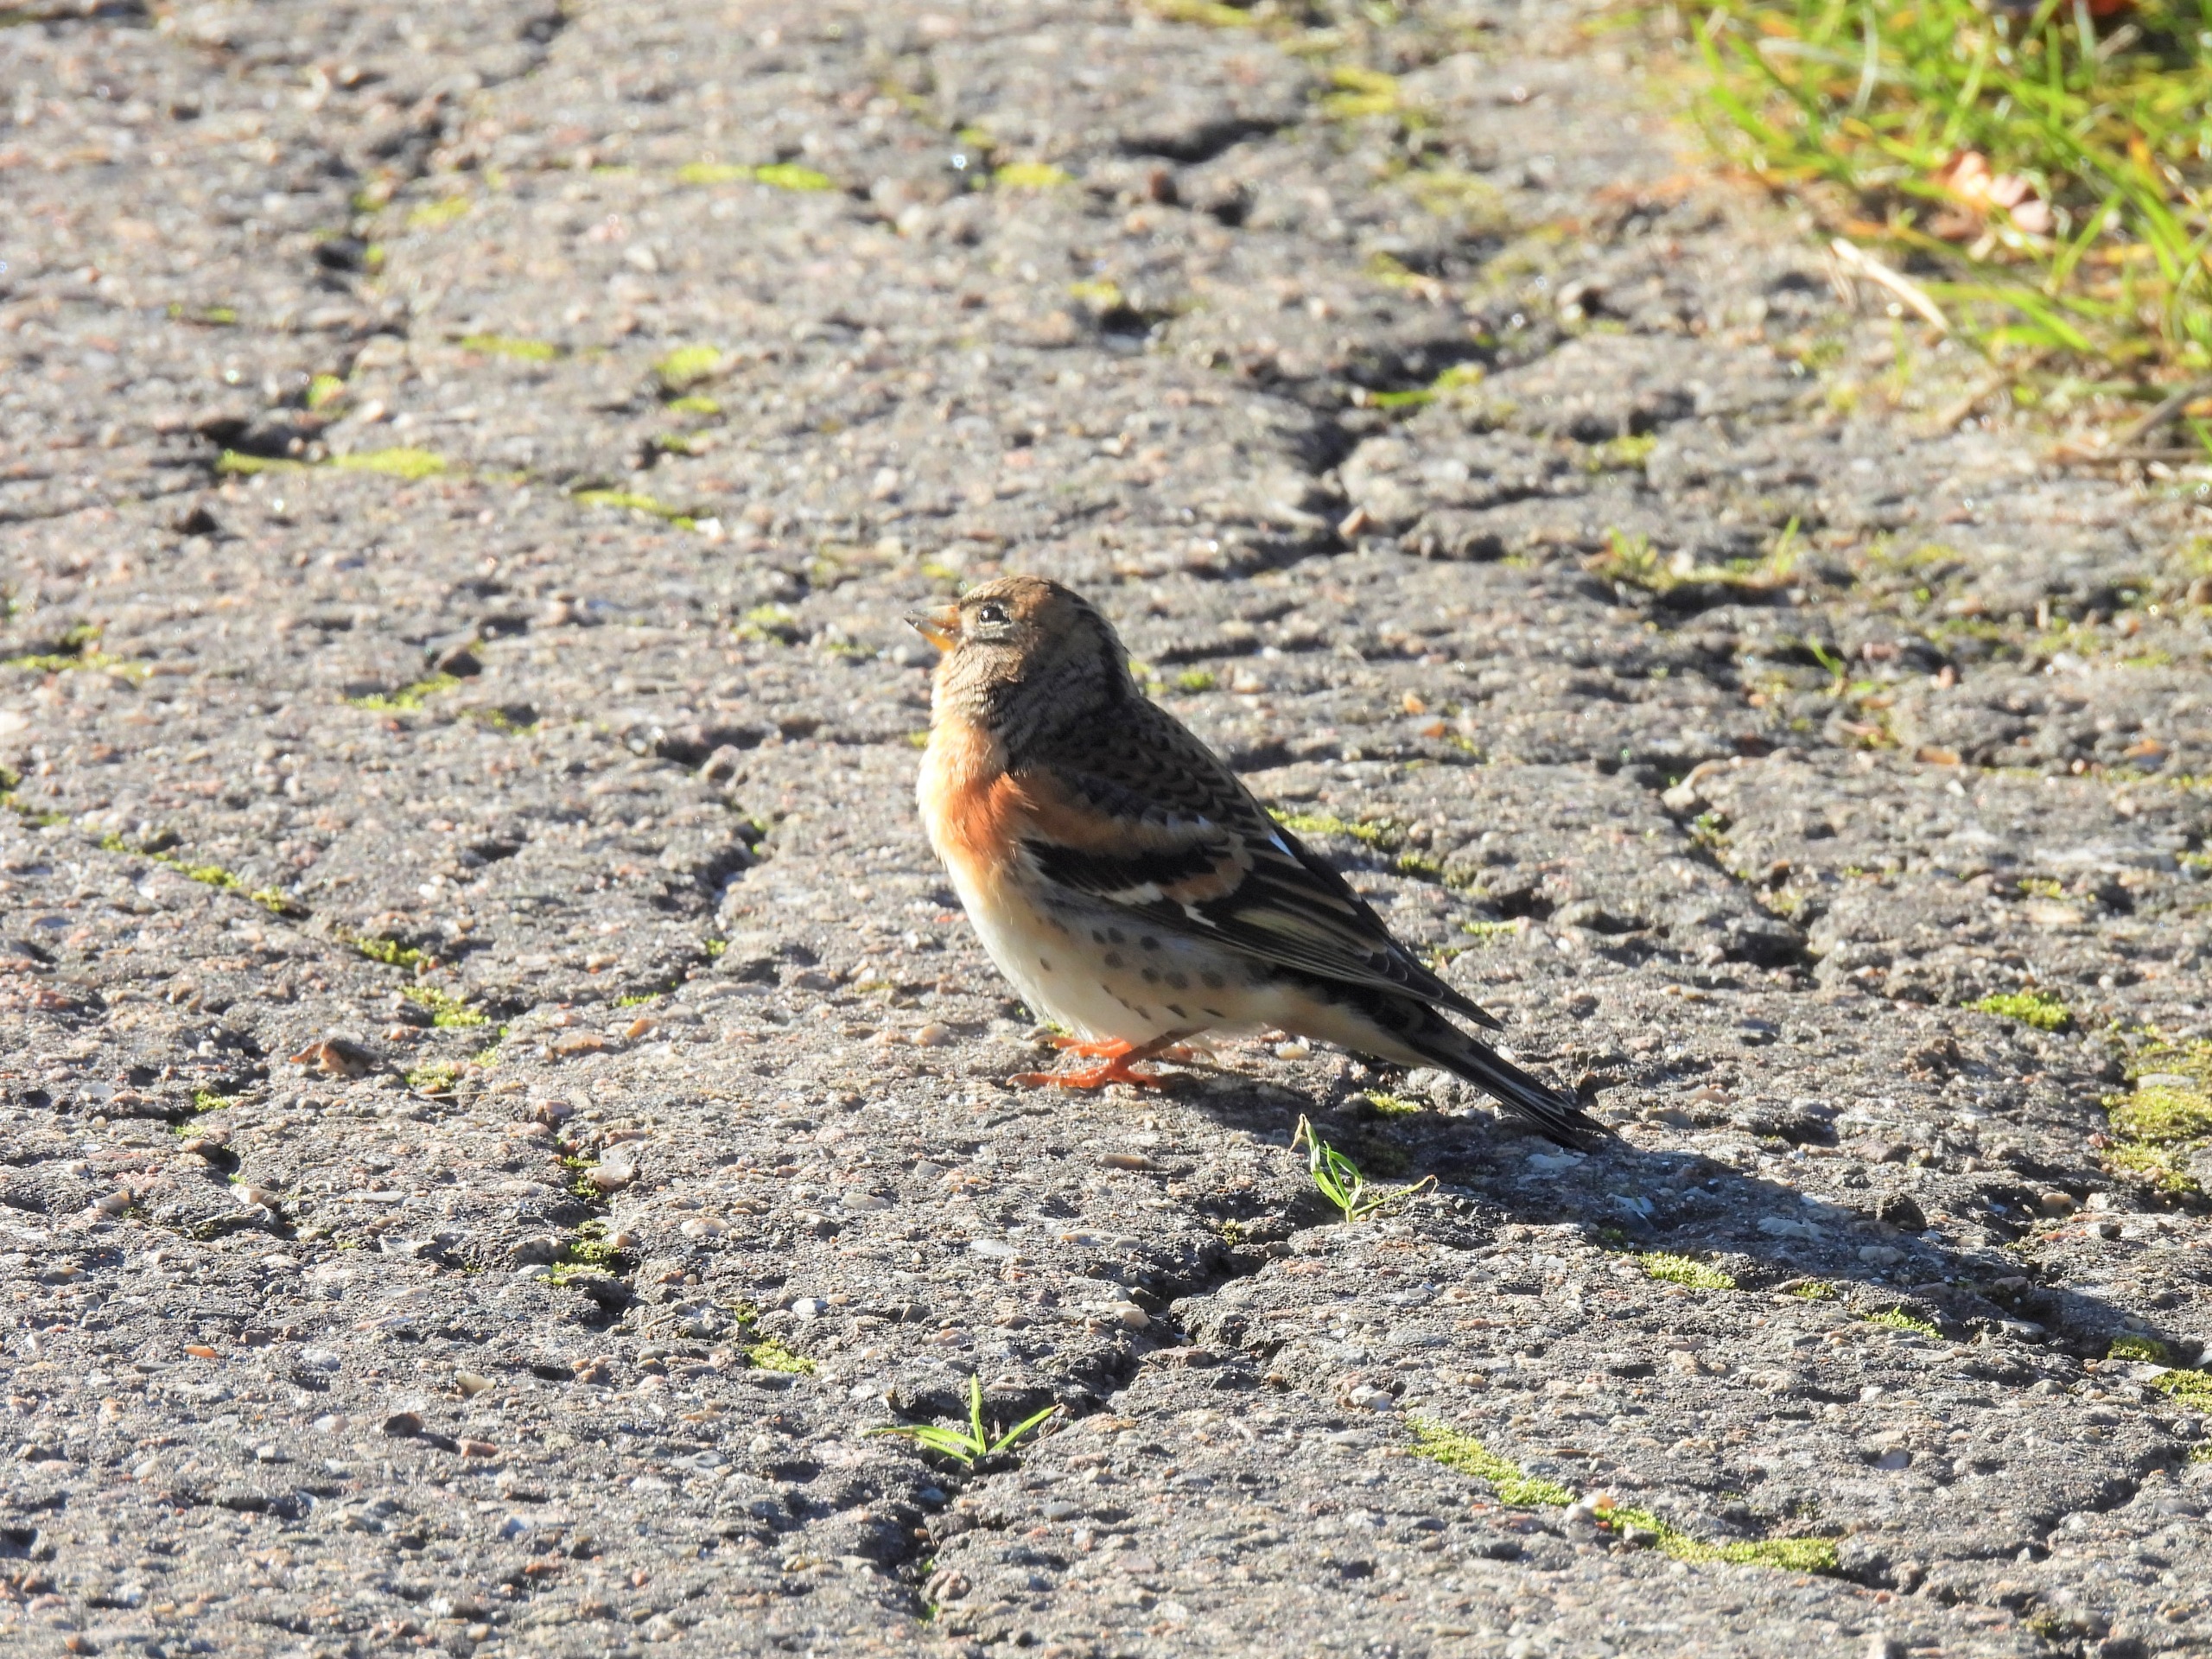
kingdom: Animalia
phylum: Chordata
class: Aves
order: Passeriformes
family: Fringillidae
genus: Fringilla
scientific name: Fringilla montifringilla
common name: Kvækerfinke
